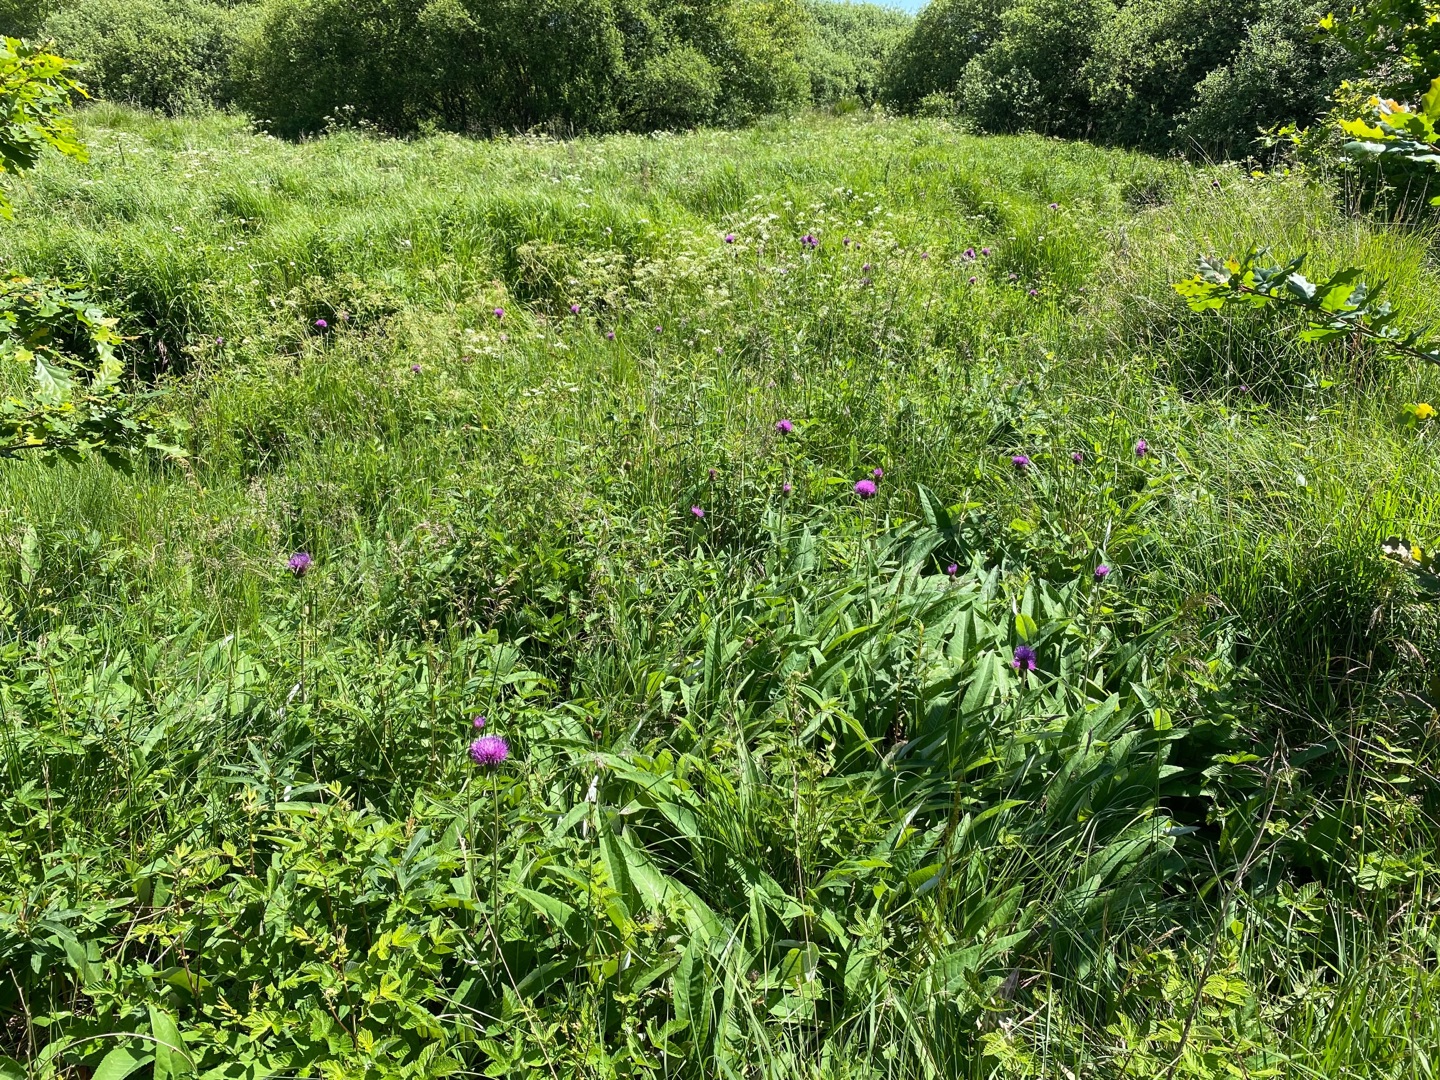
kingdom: Plantae
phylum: Tracheophyta
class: Magnoliopsida
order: Asterales
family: Asteraceae
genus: Cirsium
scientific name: Cirsium heterophyllum
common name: Forskelligbladet tidsel
